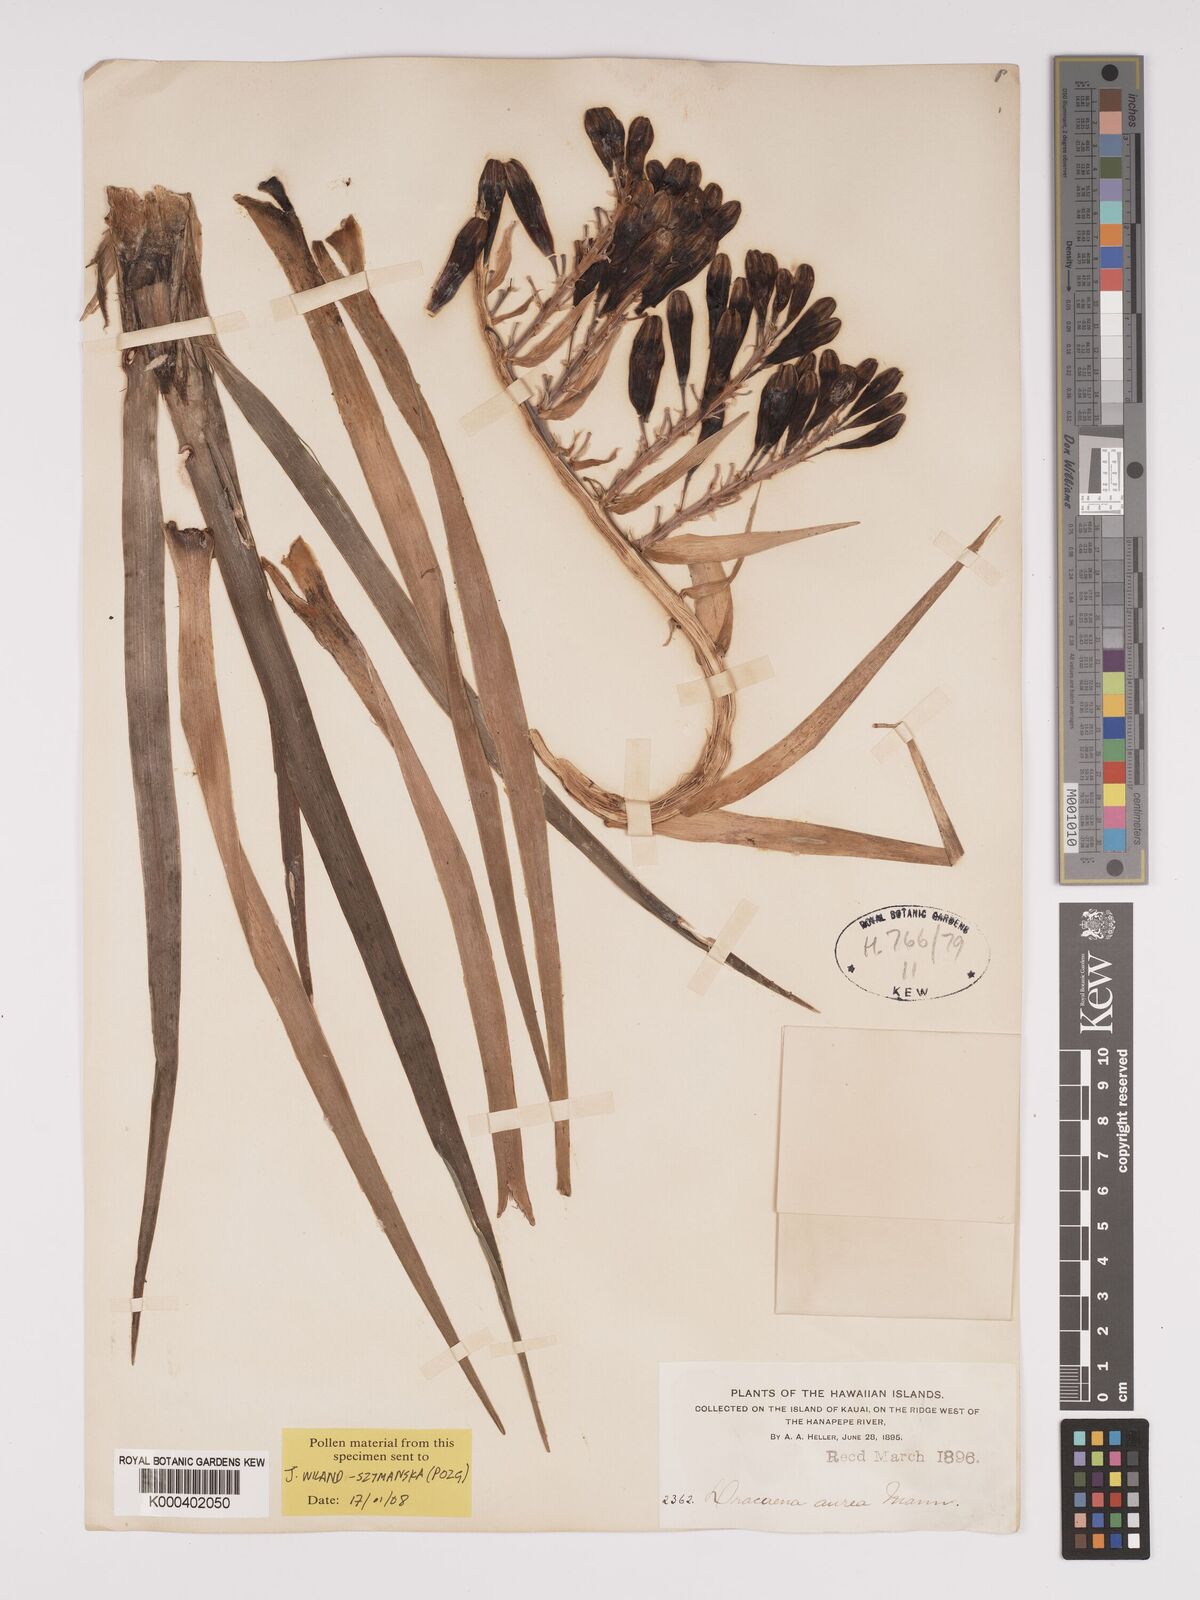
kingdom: Plantae
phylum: Tracheophyta
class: Liliopsida
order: Asparagales
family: Asparagaceae
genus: Dracaena
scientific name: Dracaena aurea
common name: Golden dracaena
